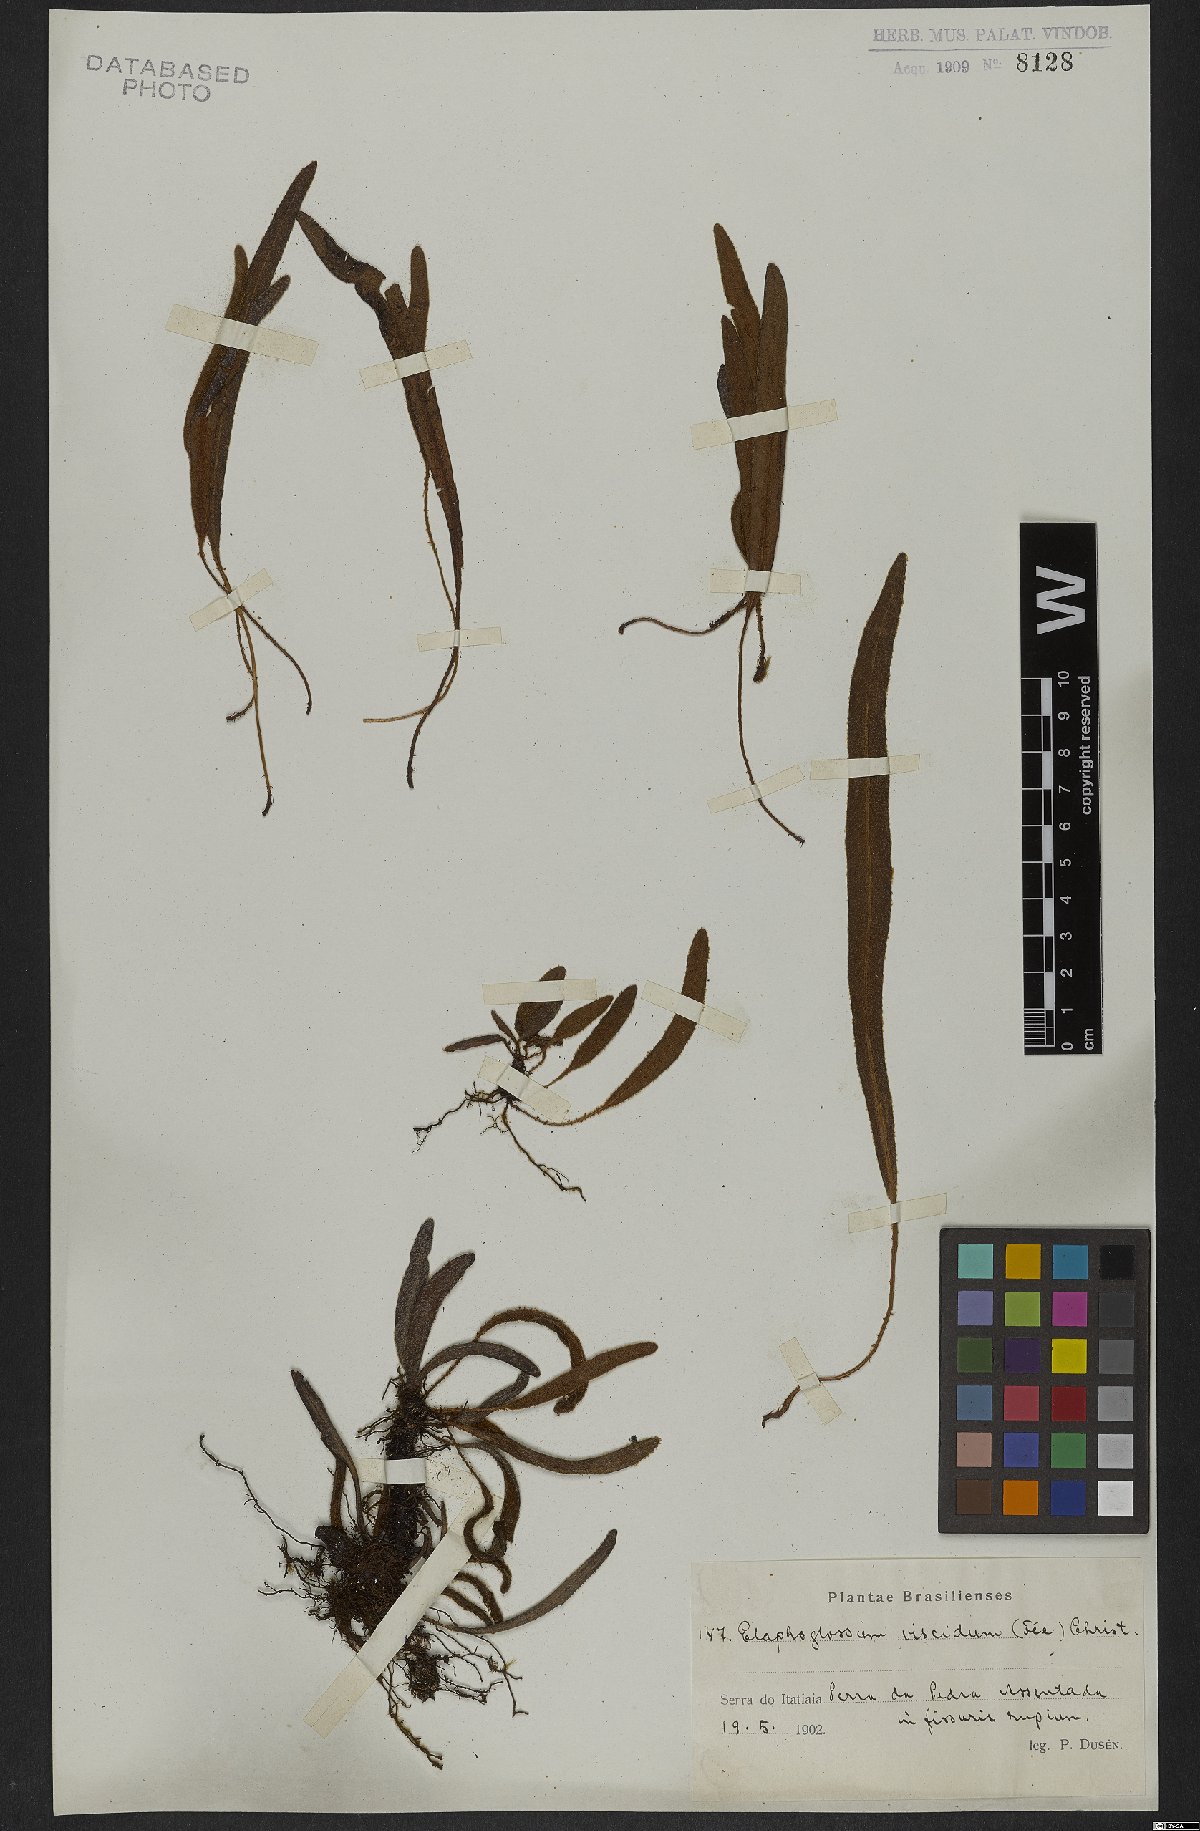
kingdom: Plantae
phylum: Tracheophyta
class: Polypodiopsida
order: Polypodiales
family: Dryopteridaceae
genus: Elaphoglossum
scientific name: Elaphoglossum viscidum
